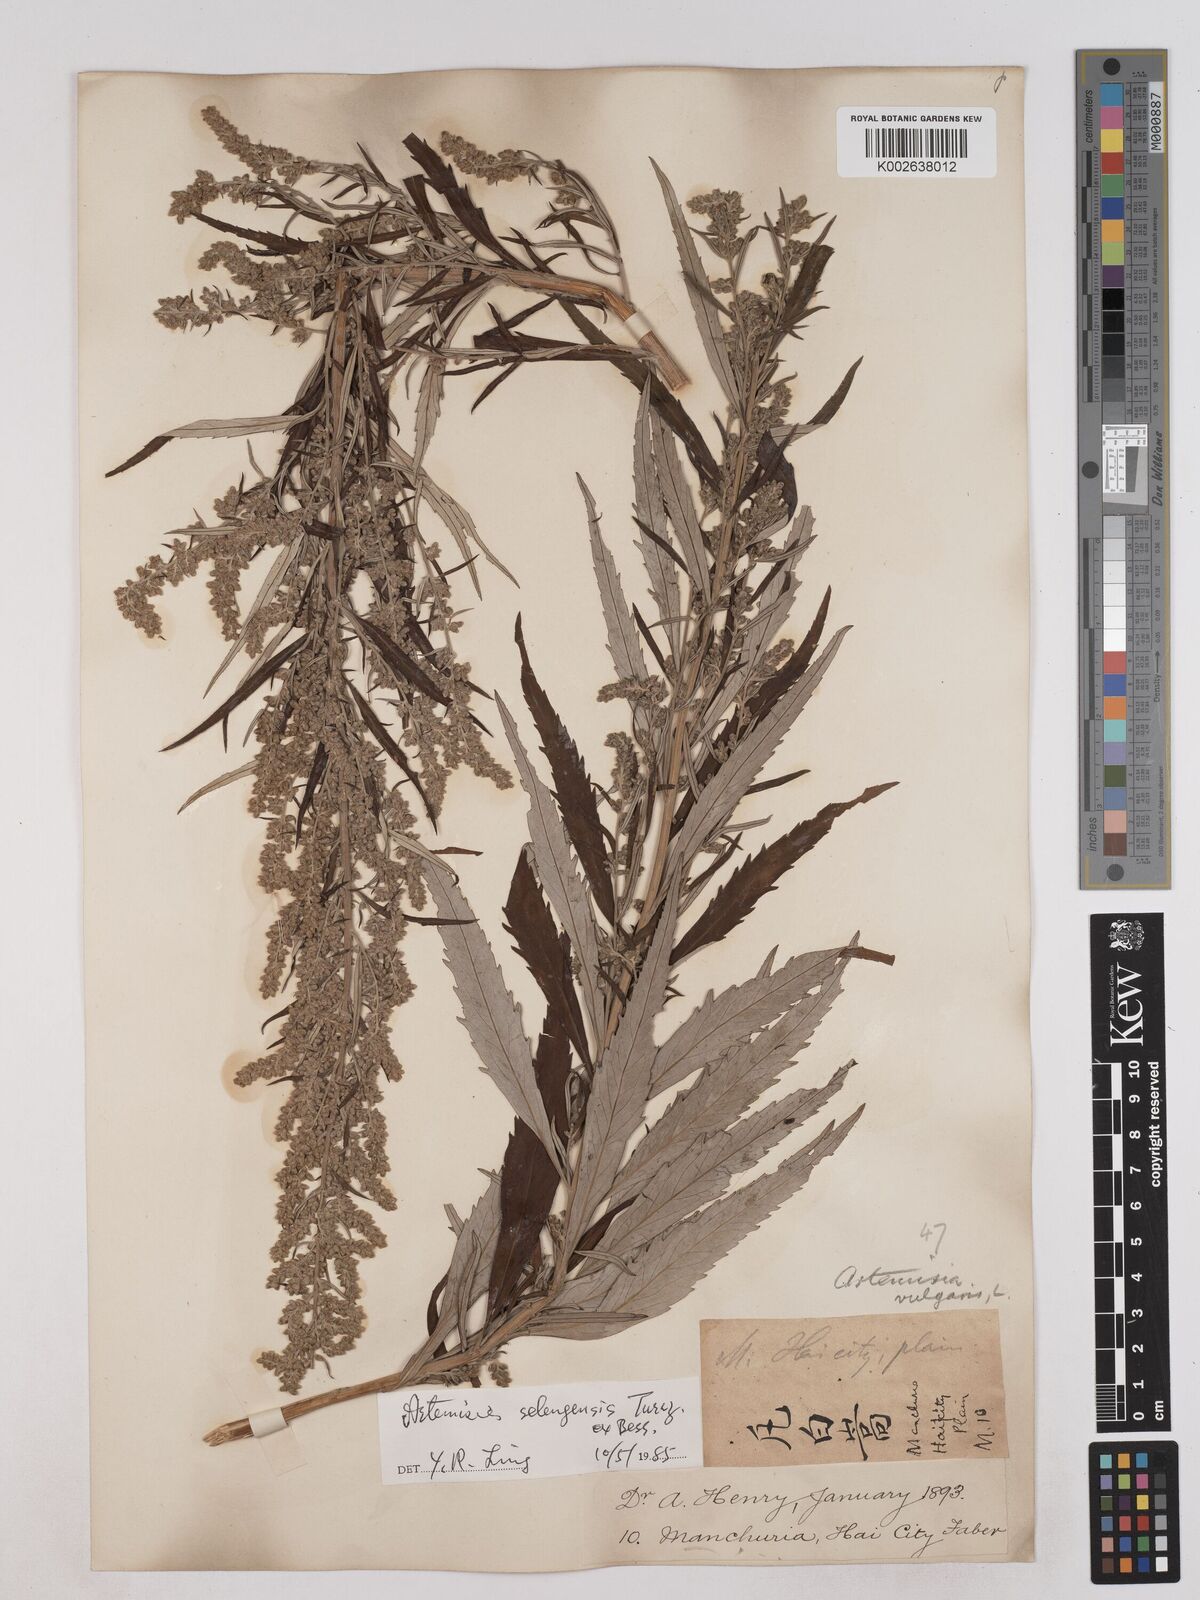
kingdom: Plantae
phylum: Tracheophyta
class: Magnoliopsida
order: Asterales
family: Asteraceae
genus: Artemisia
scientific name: Artemisia selengensis
